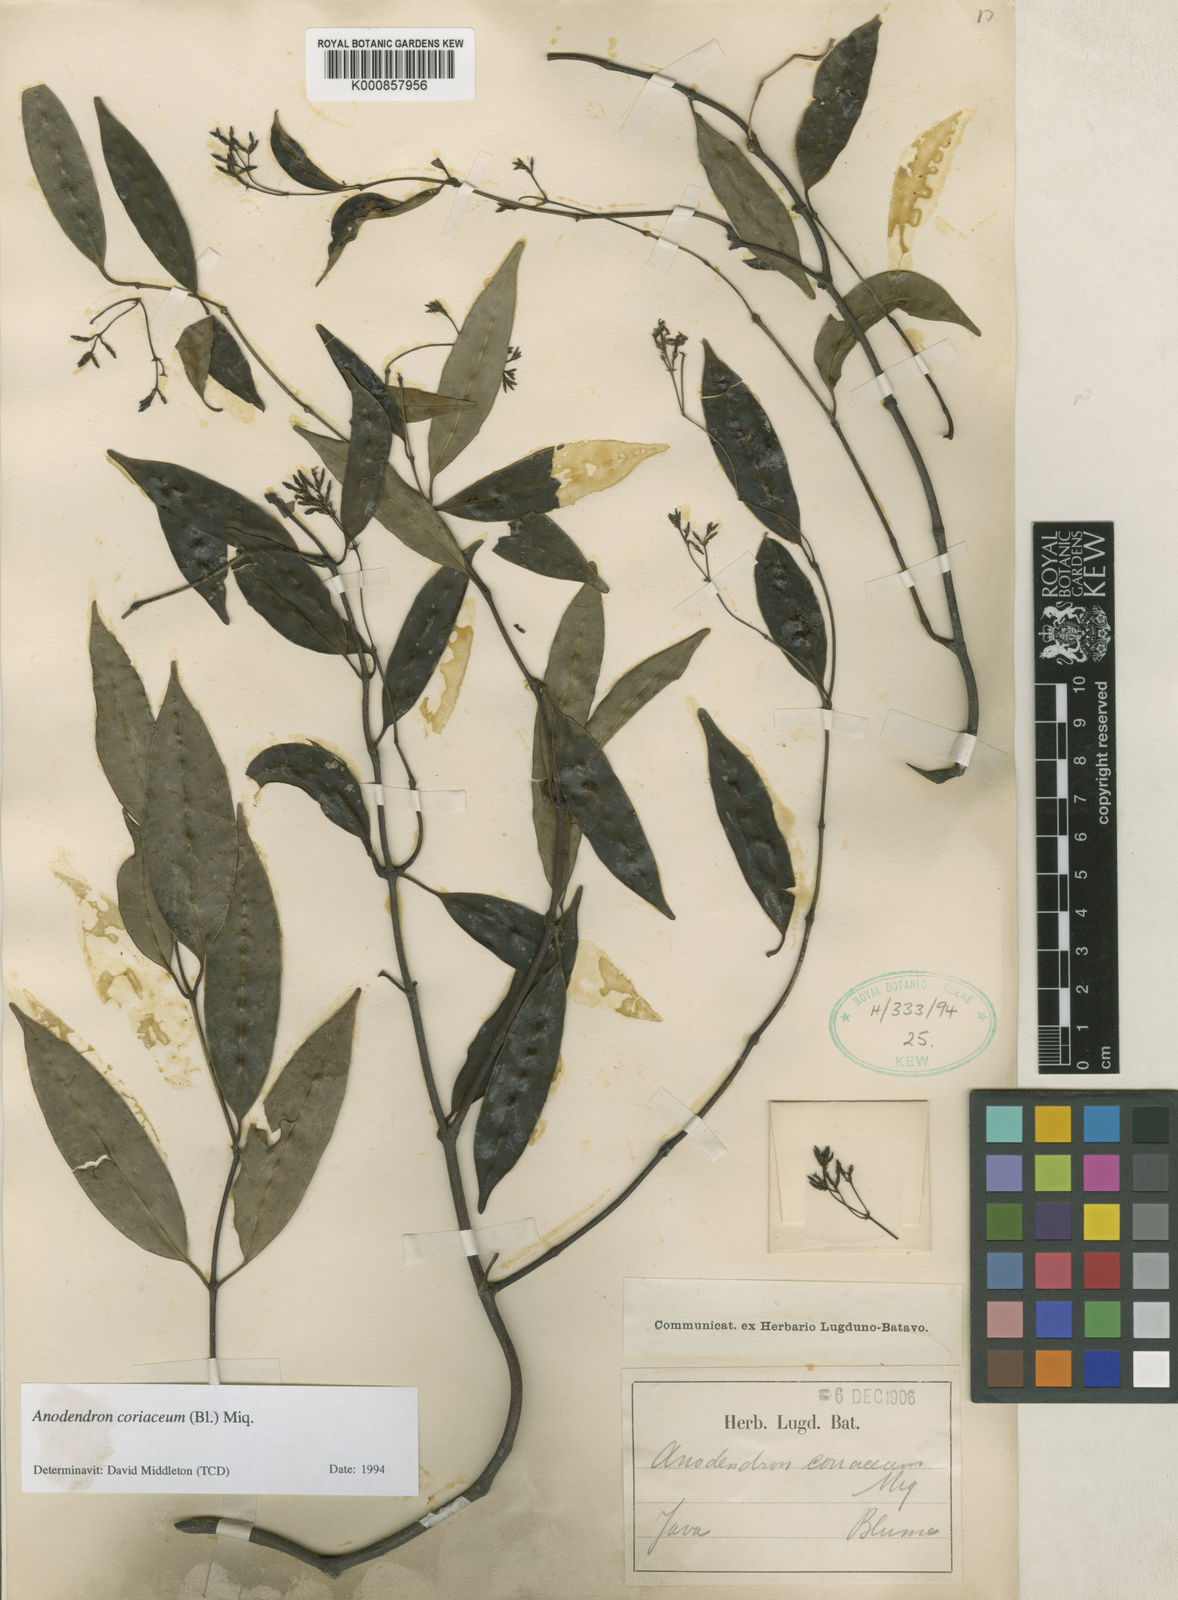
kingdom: Plantae
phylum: Tracheophyta
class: Magnoliopsida
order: Gentianales
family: Apocynaceae
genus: Anodendron
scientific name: Anodendron coriaceum
